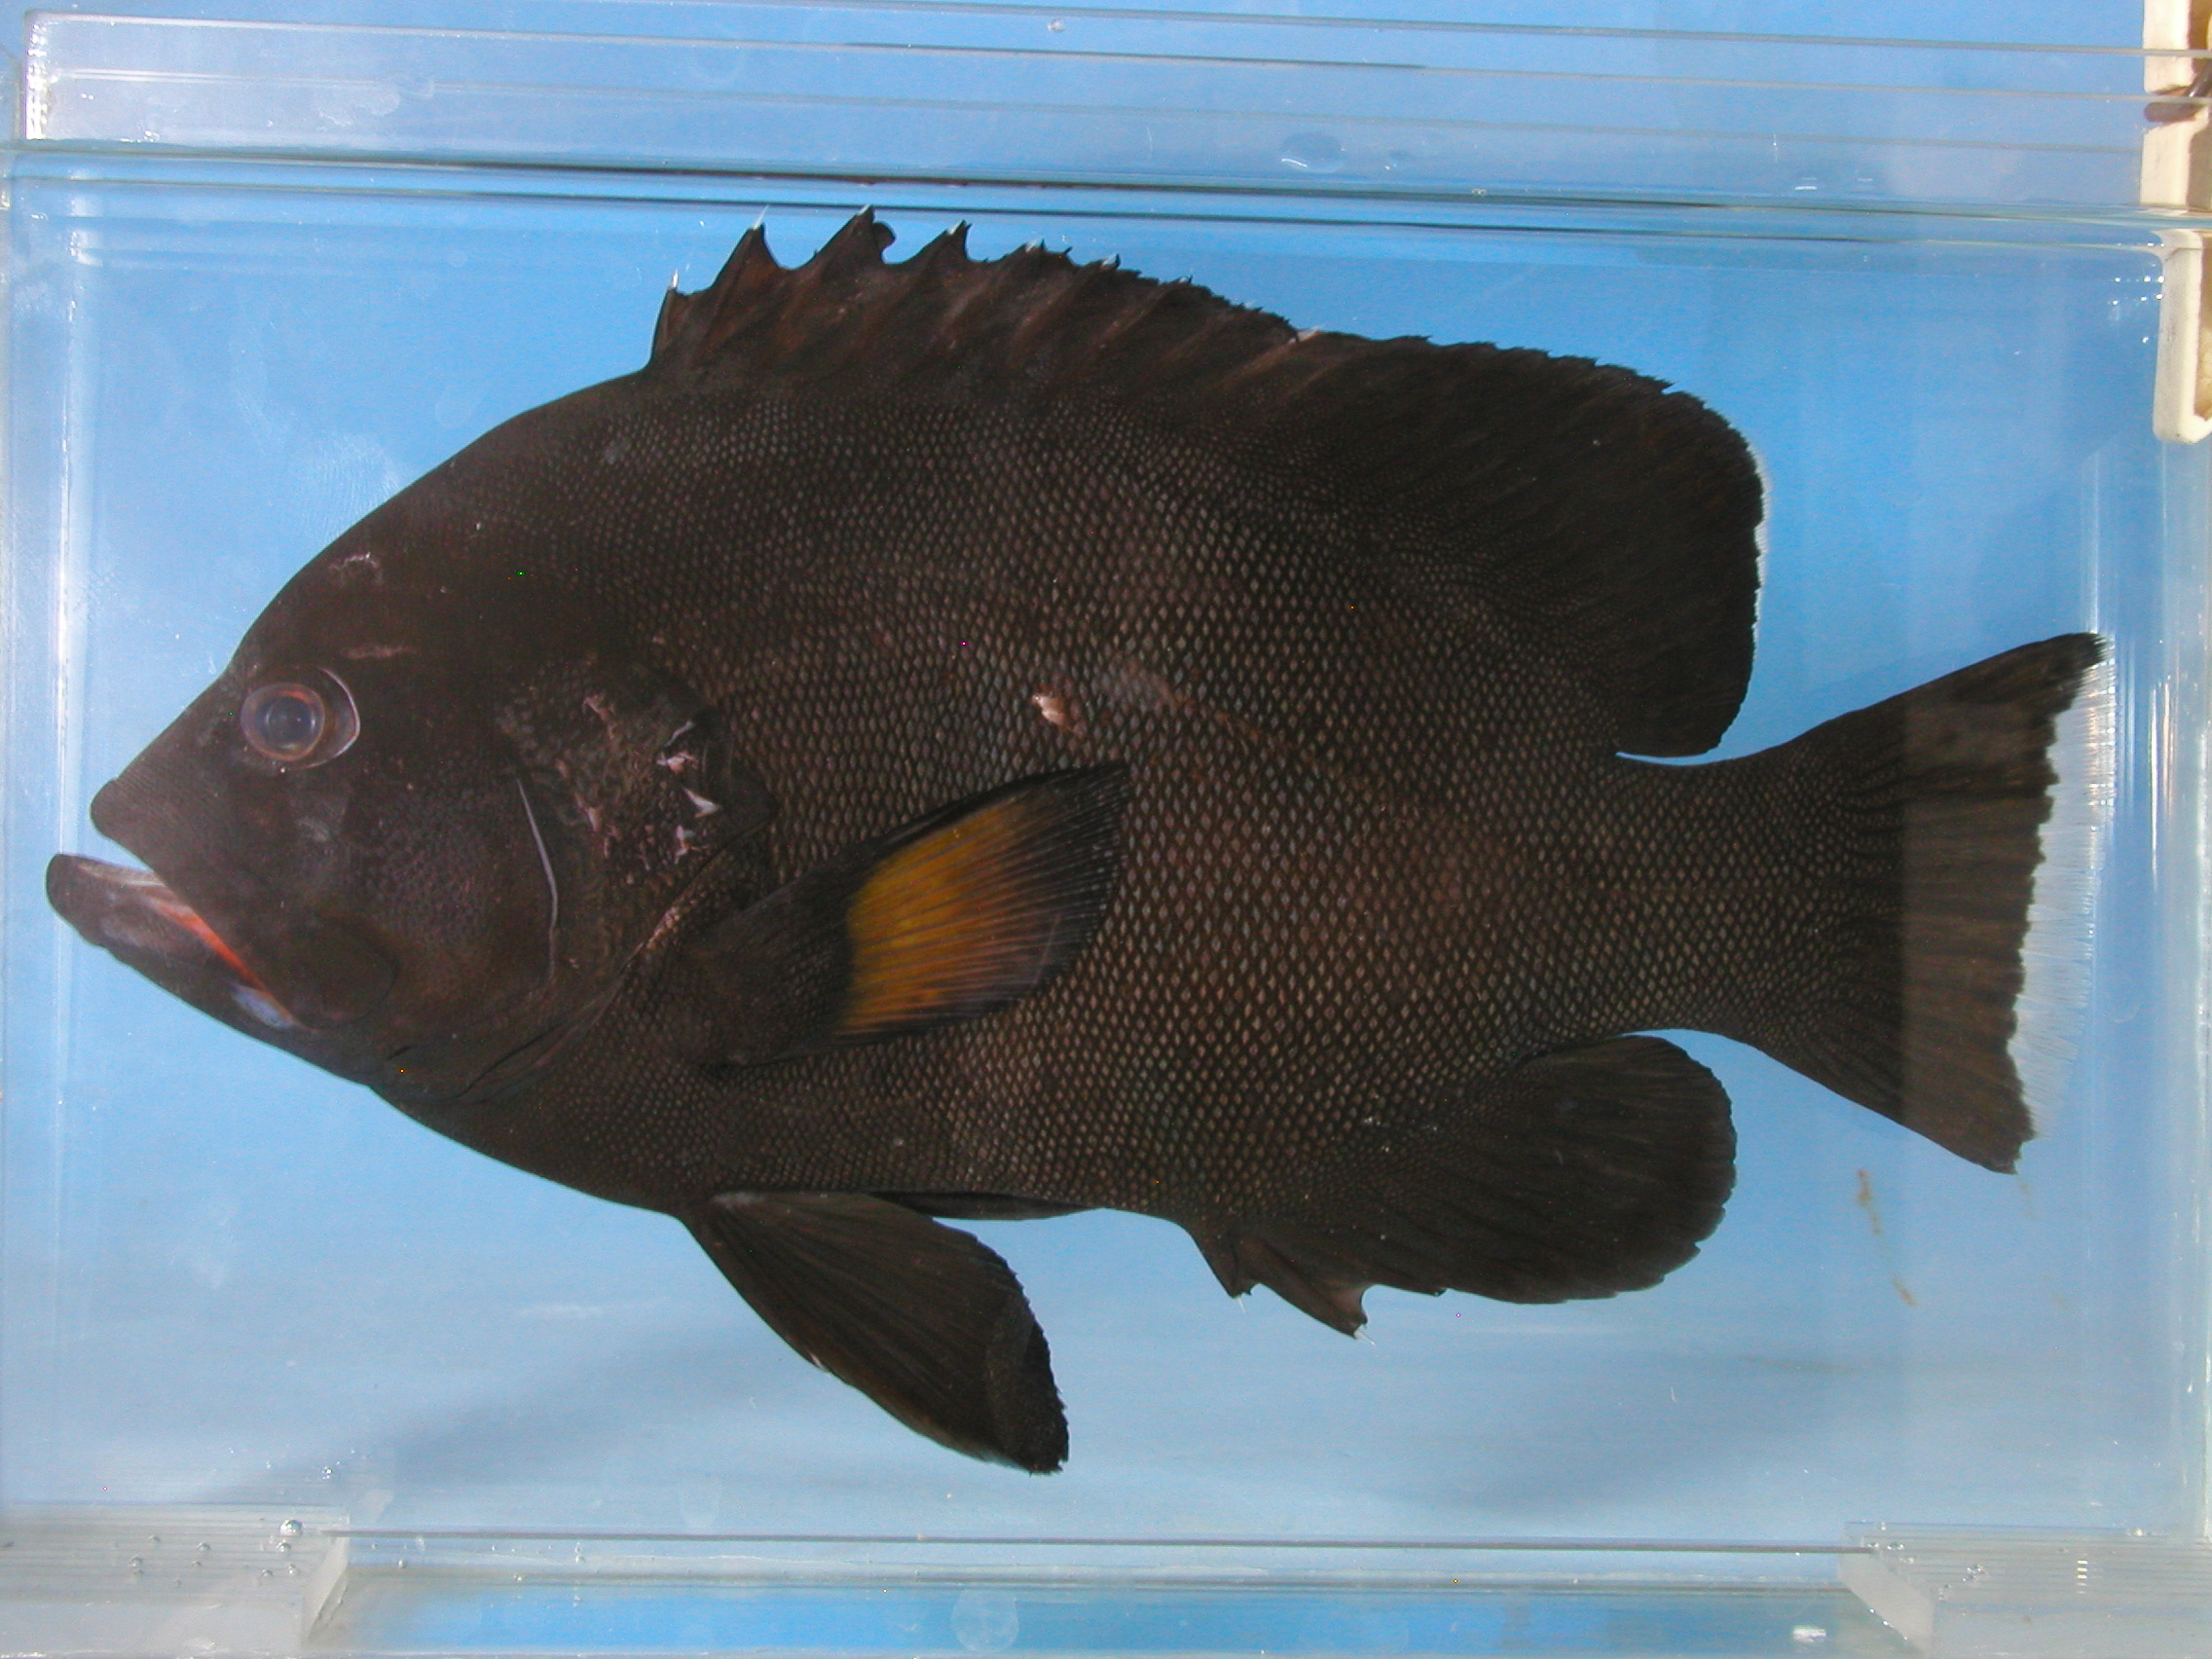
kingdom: Animalia
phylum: Chordata
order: Perciformes
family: Serranidae
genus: Aethaloperca
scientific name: Aethaloperca rogaa
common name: Redmouth grouper
